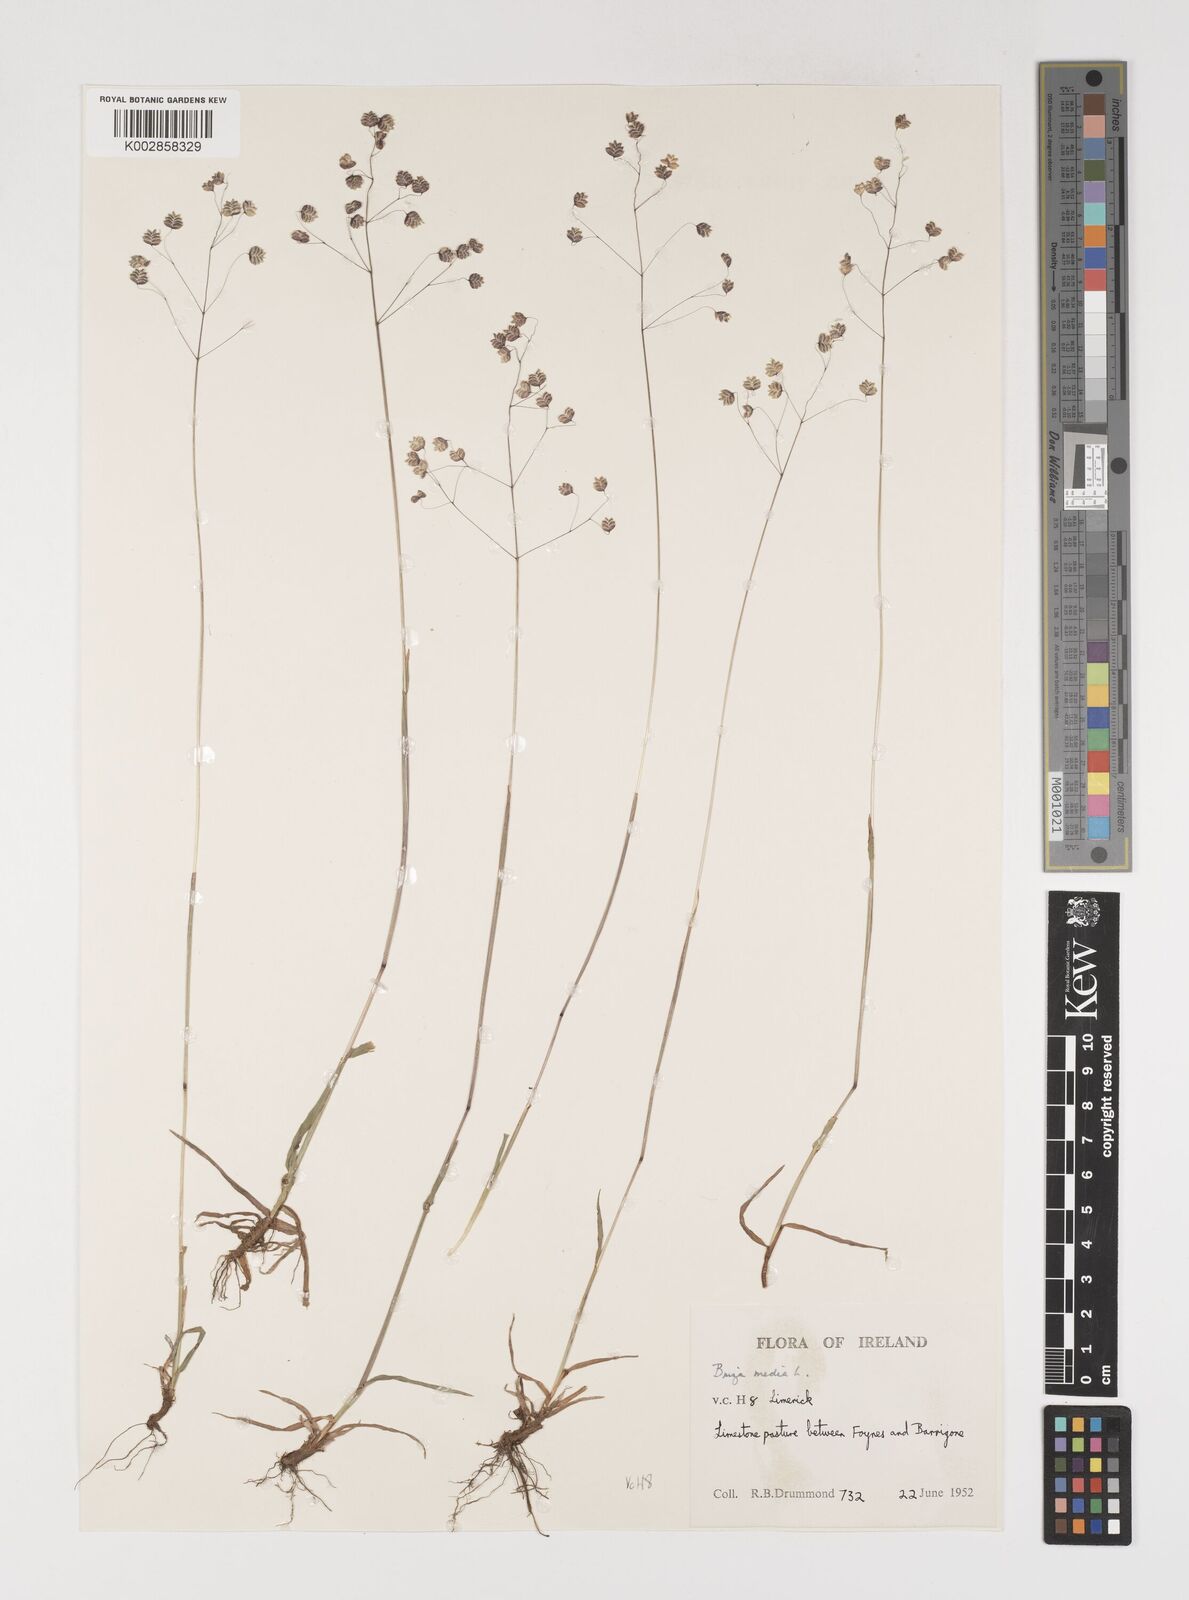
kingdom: Plantae
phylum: Tracheophyta
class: Liliopsida
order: Poales
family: Poaceae
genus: Briza
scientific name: Briza media
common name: Quaking grass
